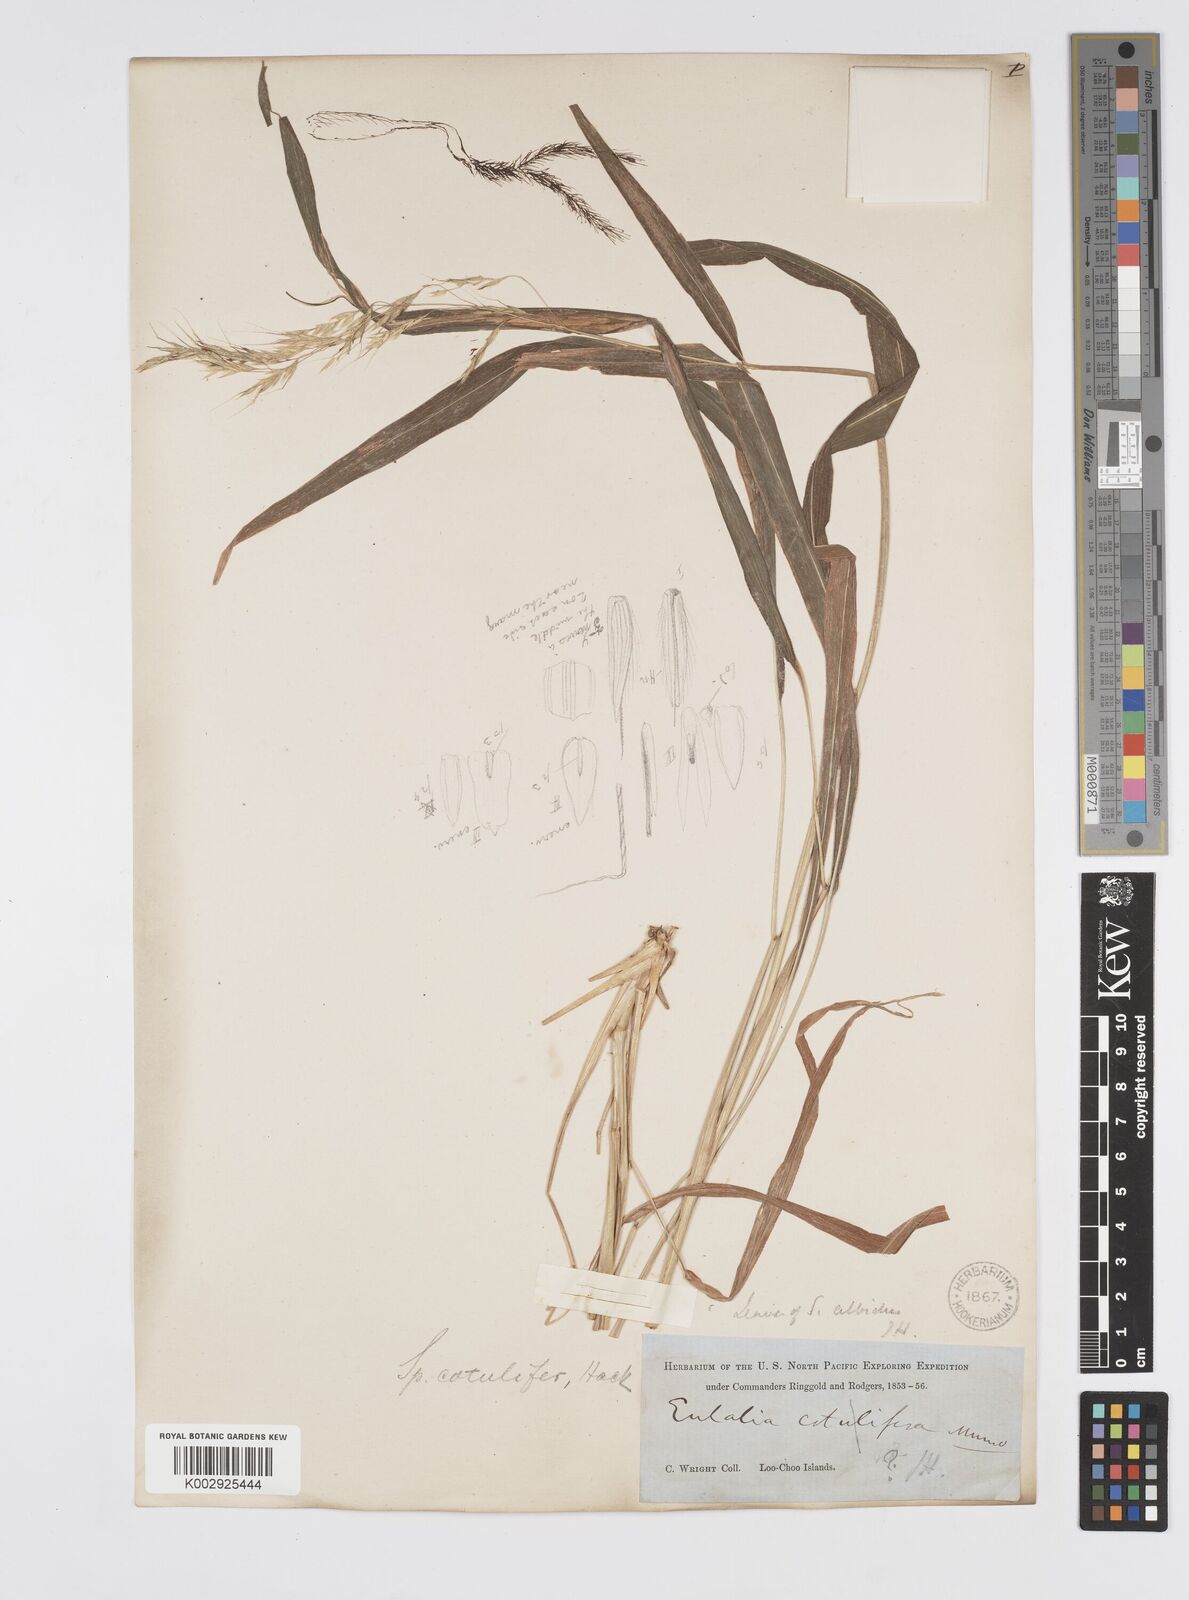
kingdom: Plantae
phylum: Tracheophyta
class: Liliopsida
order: Poales
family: Poaceae
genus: Spodiopogon
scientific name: Spodiopogon cotulifer
